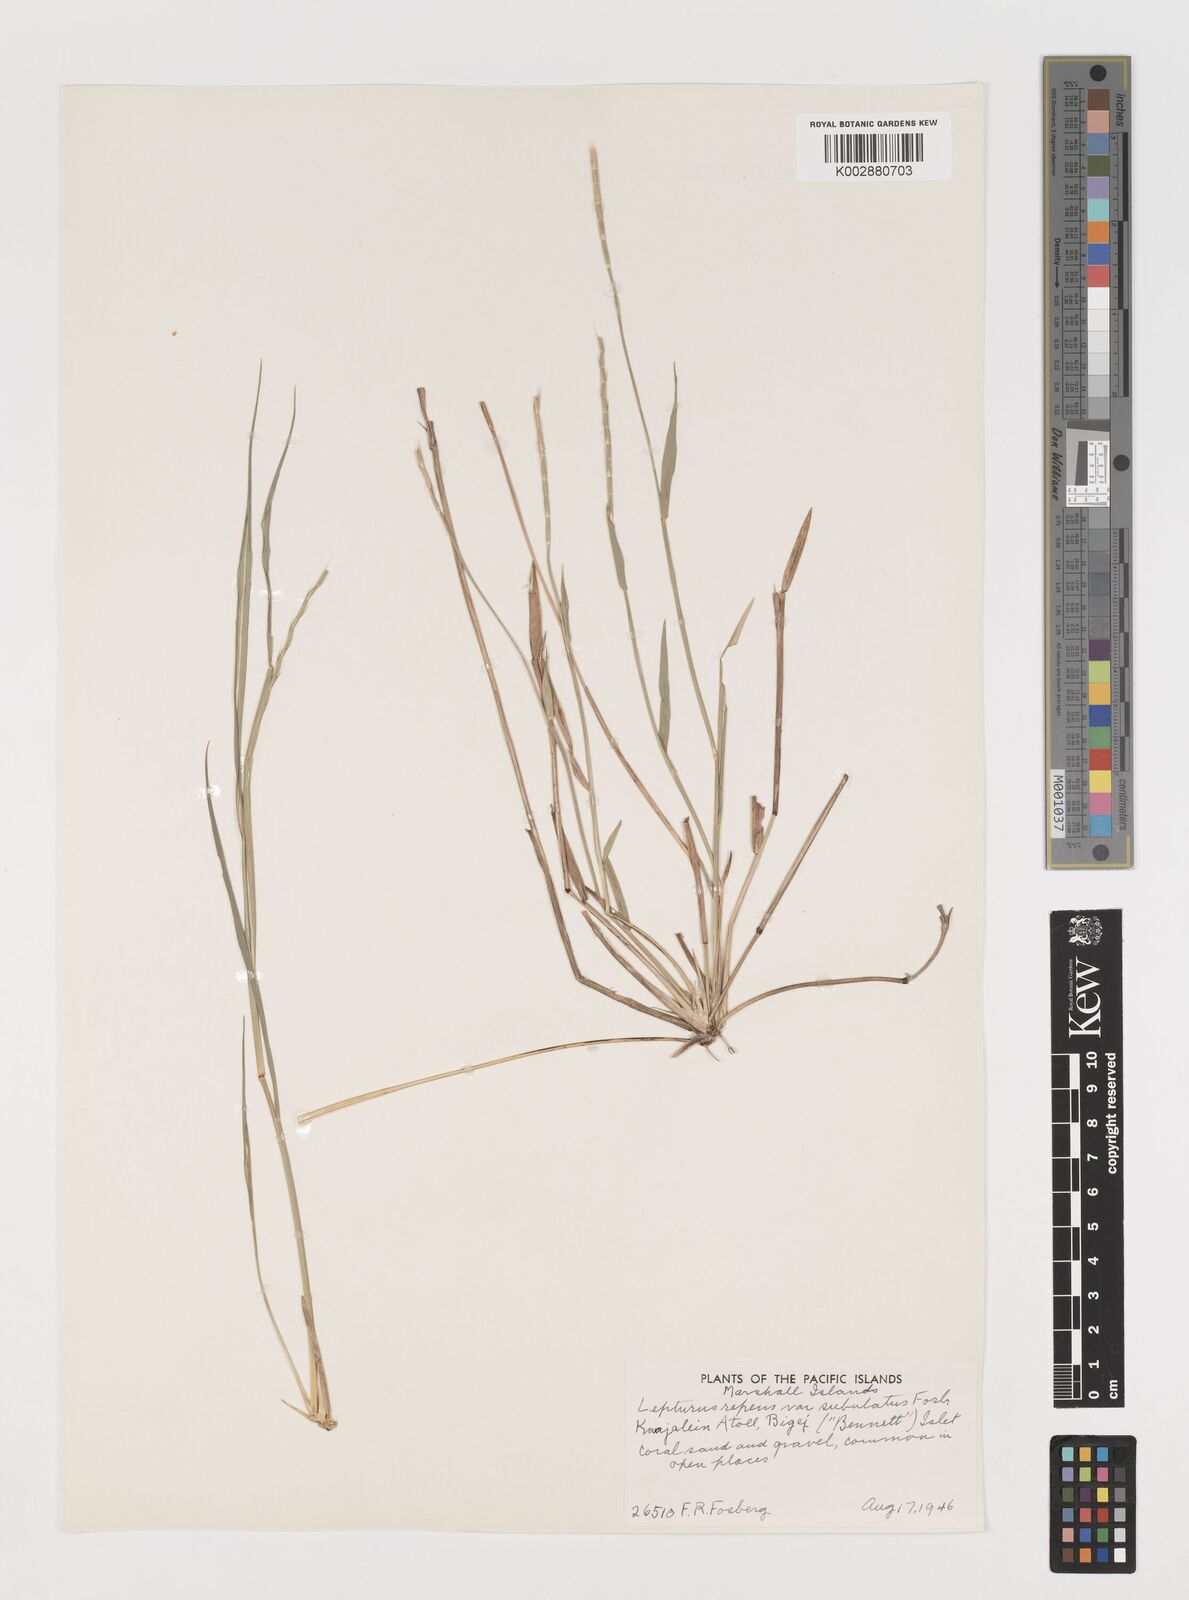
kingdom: Plantae
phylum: Tracheophyta
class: Liliopsida
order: Poales
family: Poaceae
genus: Lepturus
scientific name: Lepturus repens
